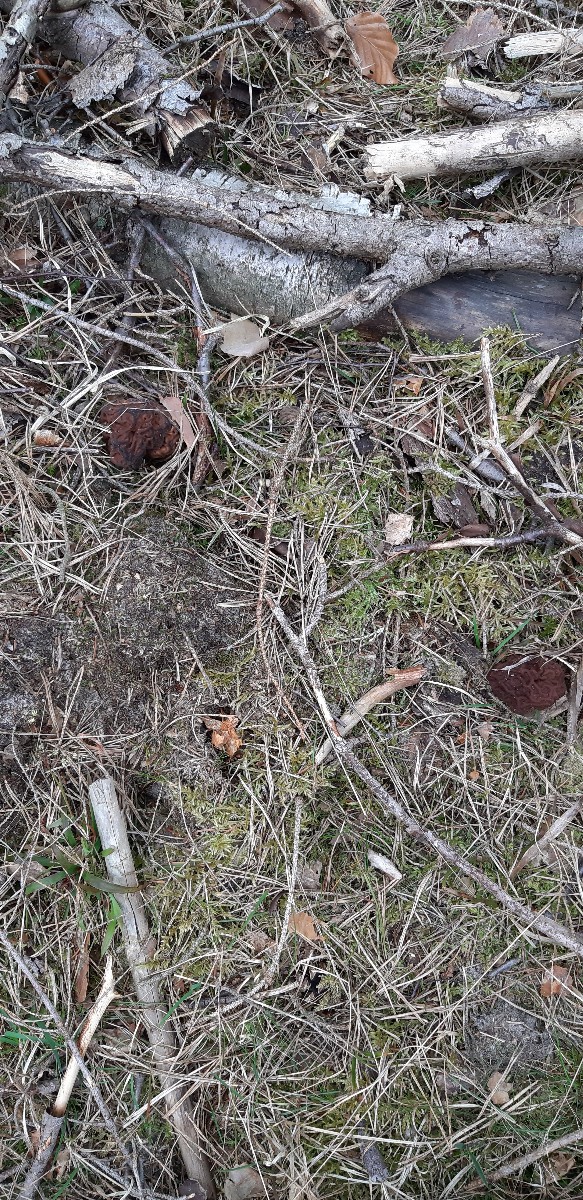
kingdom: Fungi
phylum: Ascomycota
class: Pezizomycetes
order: Pezizales
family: Discinaceae
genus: Gyromitra
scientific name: Gyromitra esculenta
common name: ægte stenmorkel
